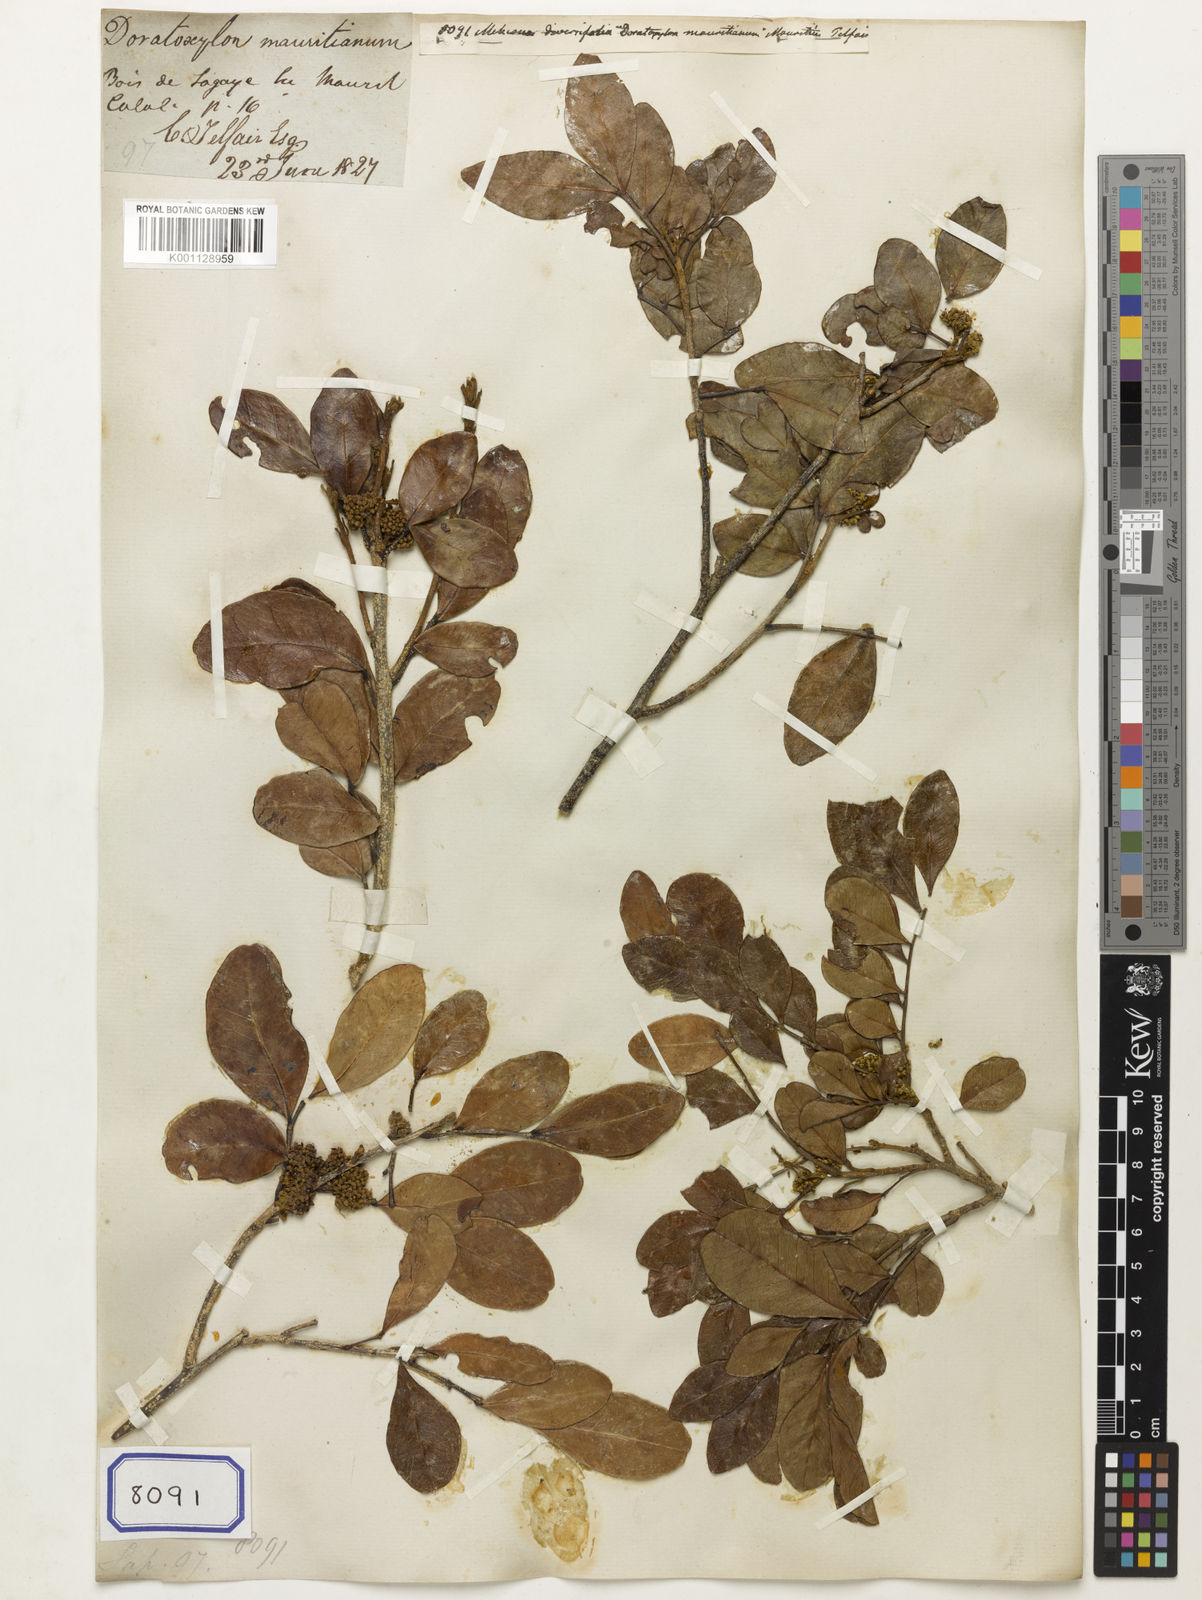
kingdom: Plantae
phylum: Tracheophyta
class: Magnoliopsida
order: Asterales
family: Asteraceae
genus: Mikania
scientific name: Mikania diversifolia
